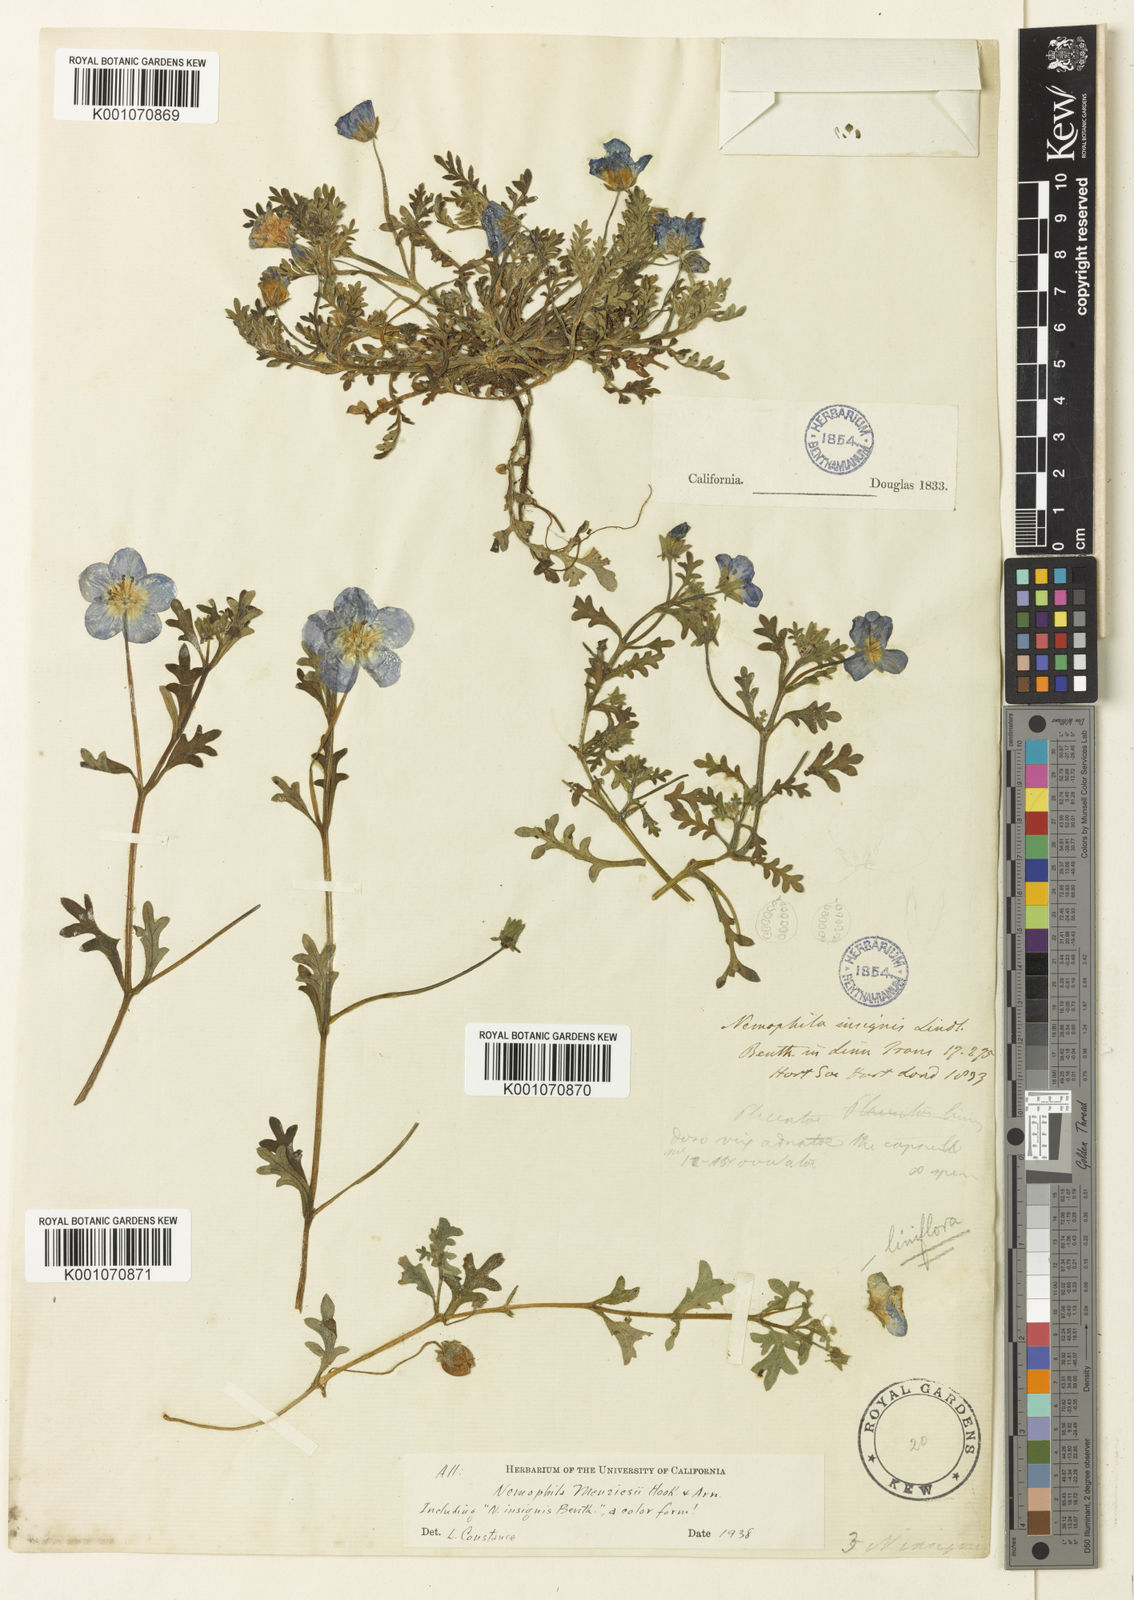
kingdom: Plantae
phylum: Tracheophyta
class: Magnoliopsida
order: Boraginales
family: Hydrophyllaceae
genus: Nemophila
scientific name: Nemophila menziesii
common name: Baby's-blue-eyes
